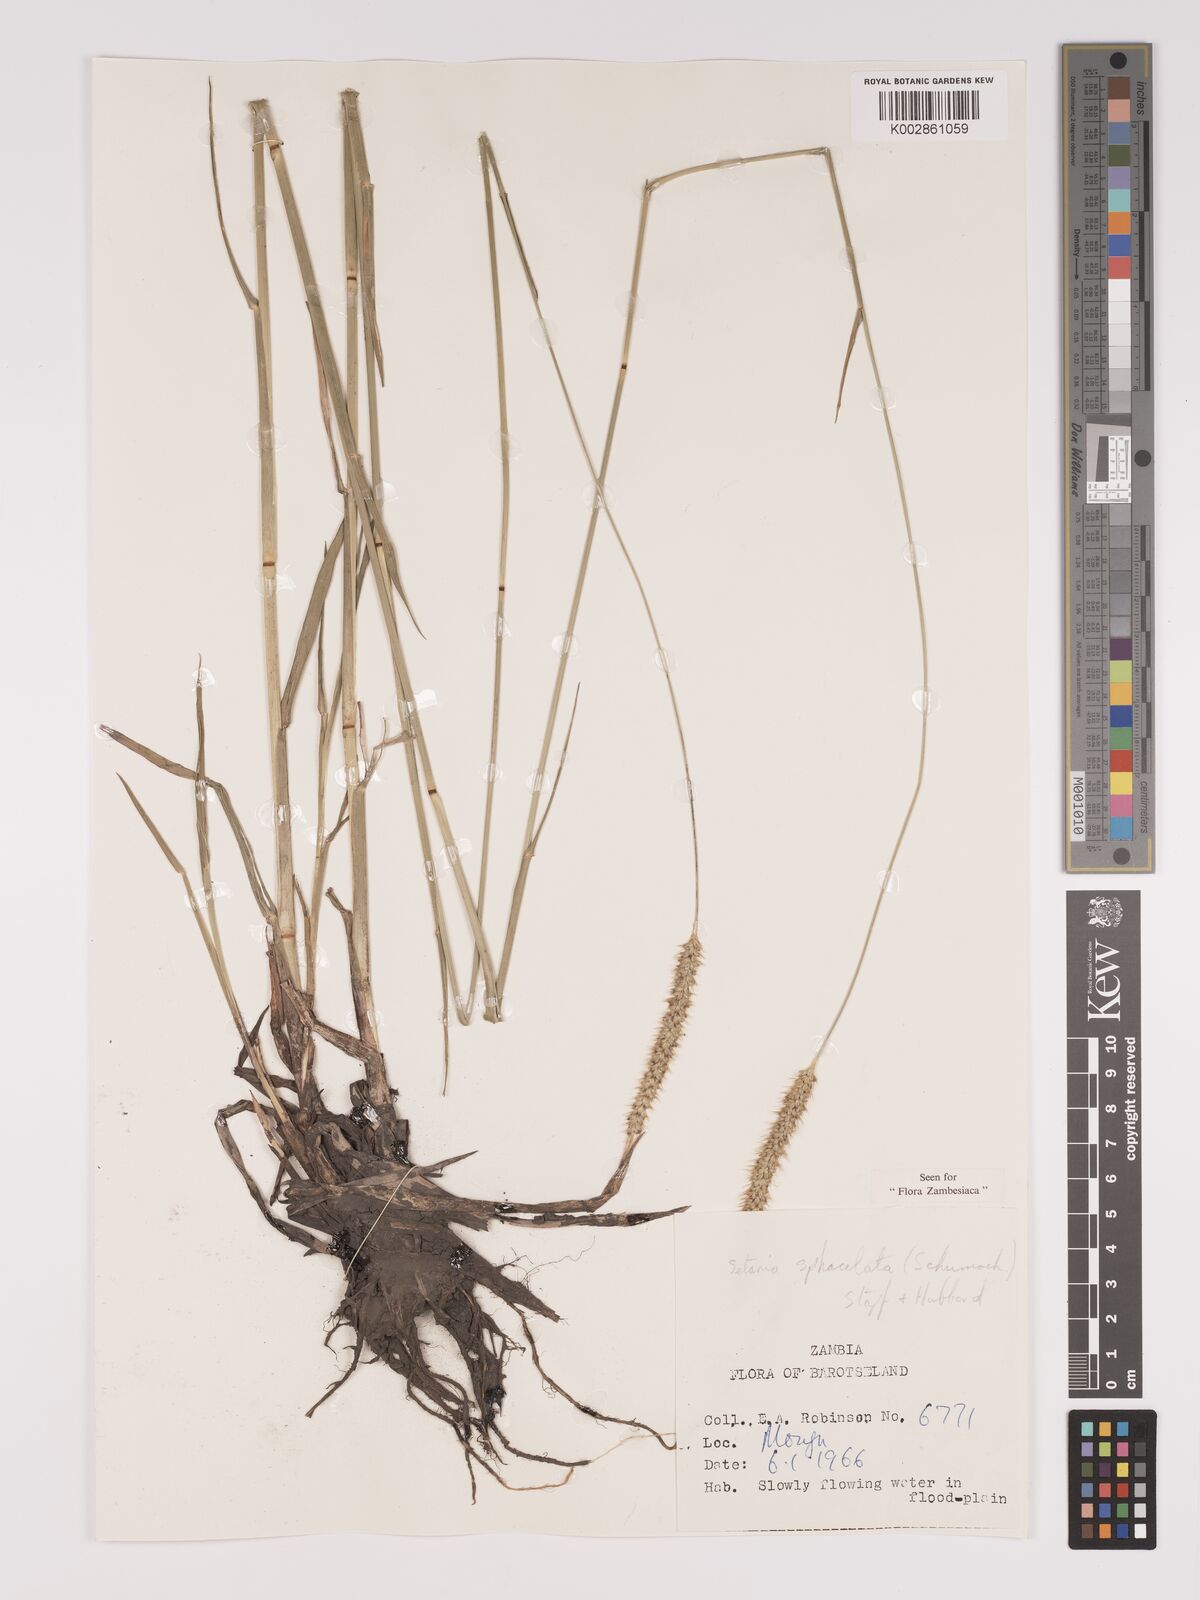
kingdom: Plantae
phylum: Tracheophyta
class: Liliopsida
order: Poales
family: Poaceae
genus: Setaria
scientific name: Setaria sphacelata
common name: African bristlegrass
